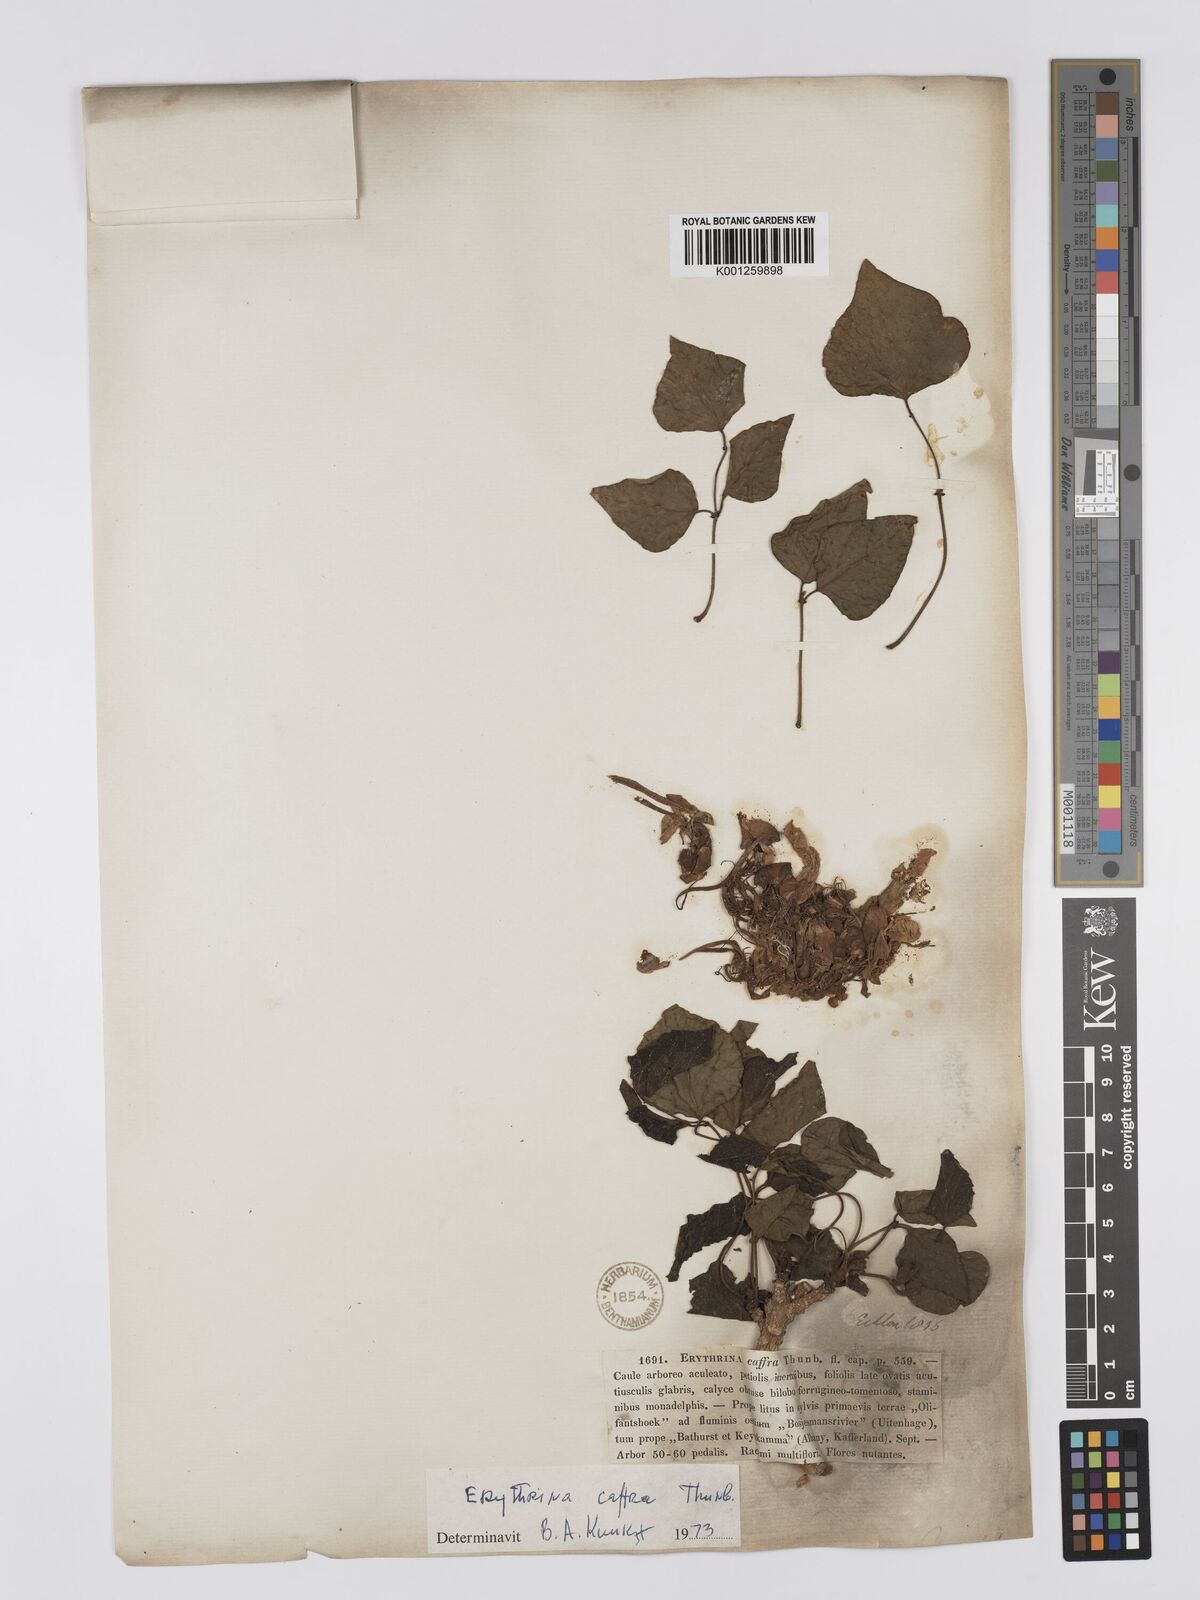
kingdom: Plantae
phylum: Tracheophyta
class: Magnoliopsida
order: Fabales
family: Fabaceae
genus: Erythrina
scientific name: Erythrina caffra
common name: Coast coral tree
